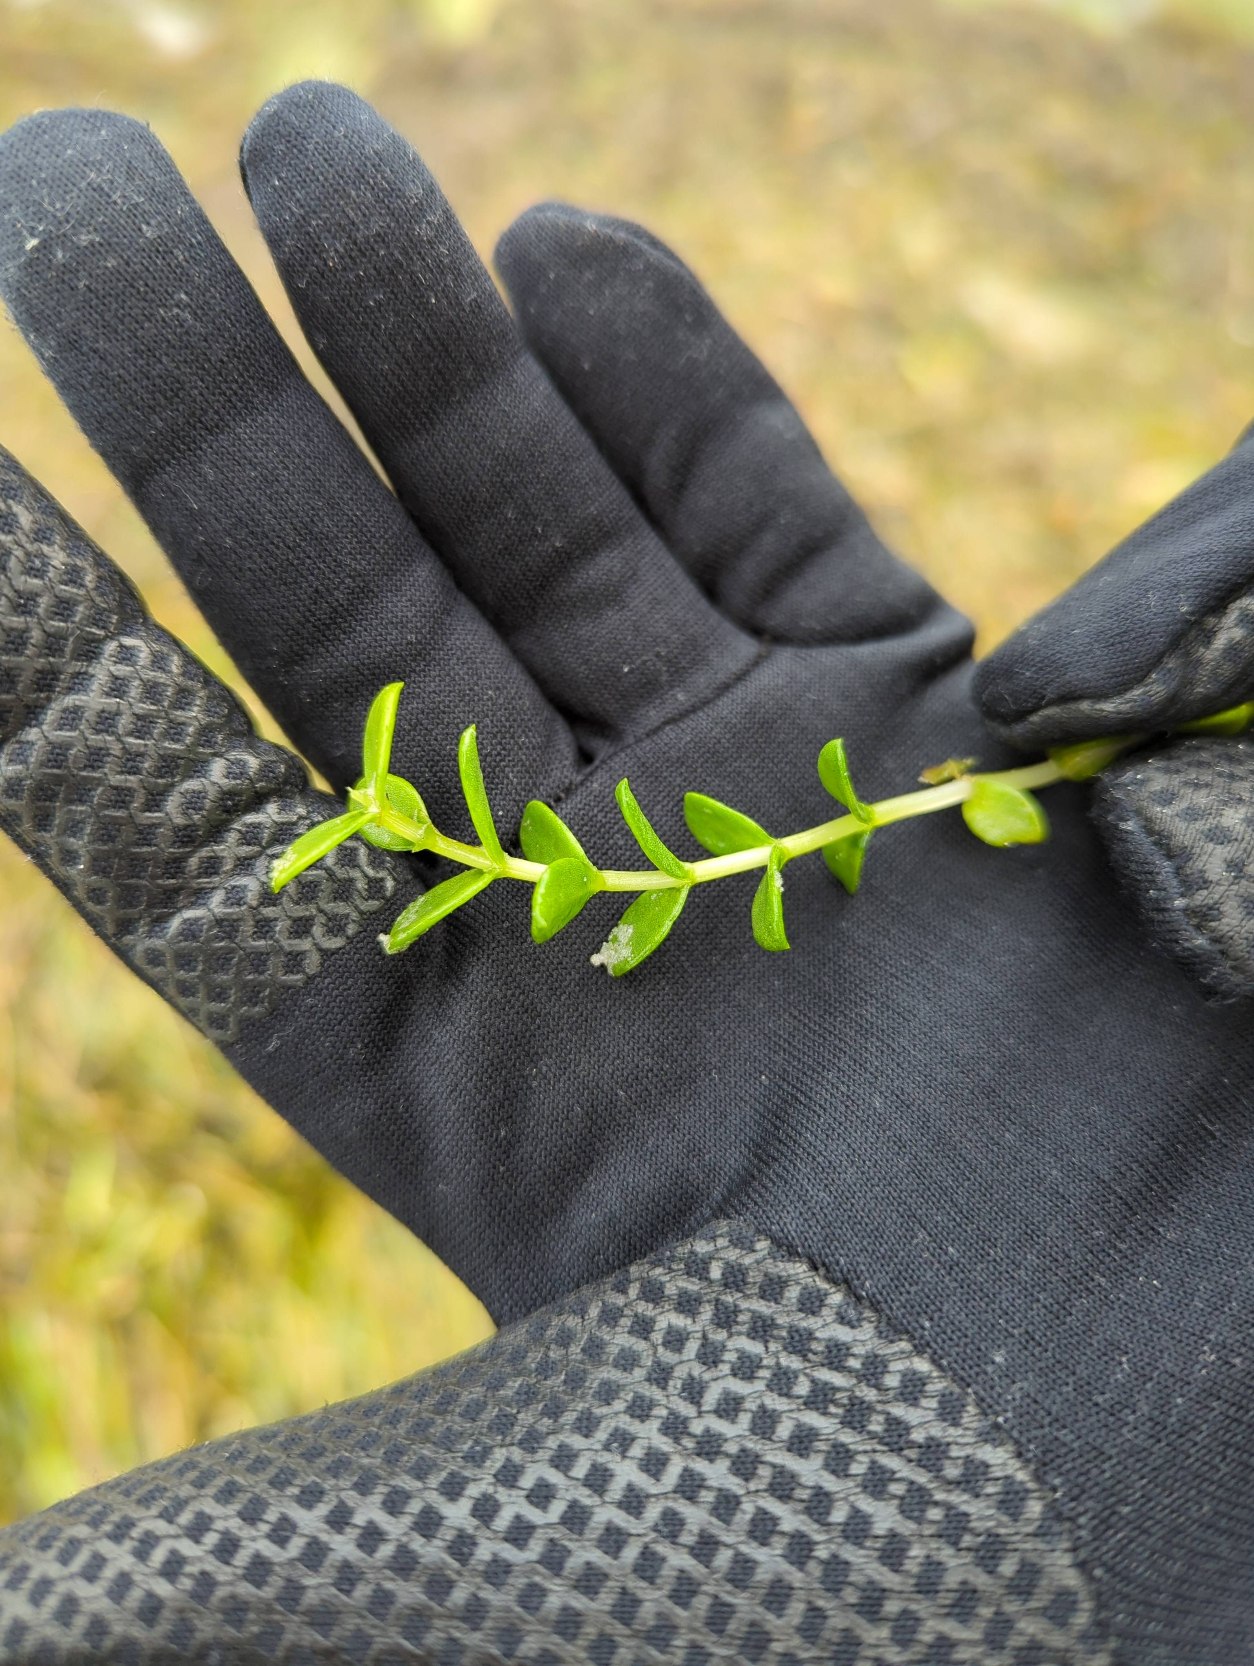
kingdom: Plantae
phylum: Tracheophyta
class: Magnoliopsida
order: Ericales
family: Primulaceae
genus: Lysimachia
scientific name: Lysimachia maritima
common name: Sandkryb
